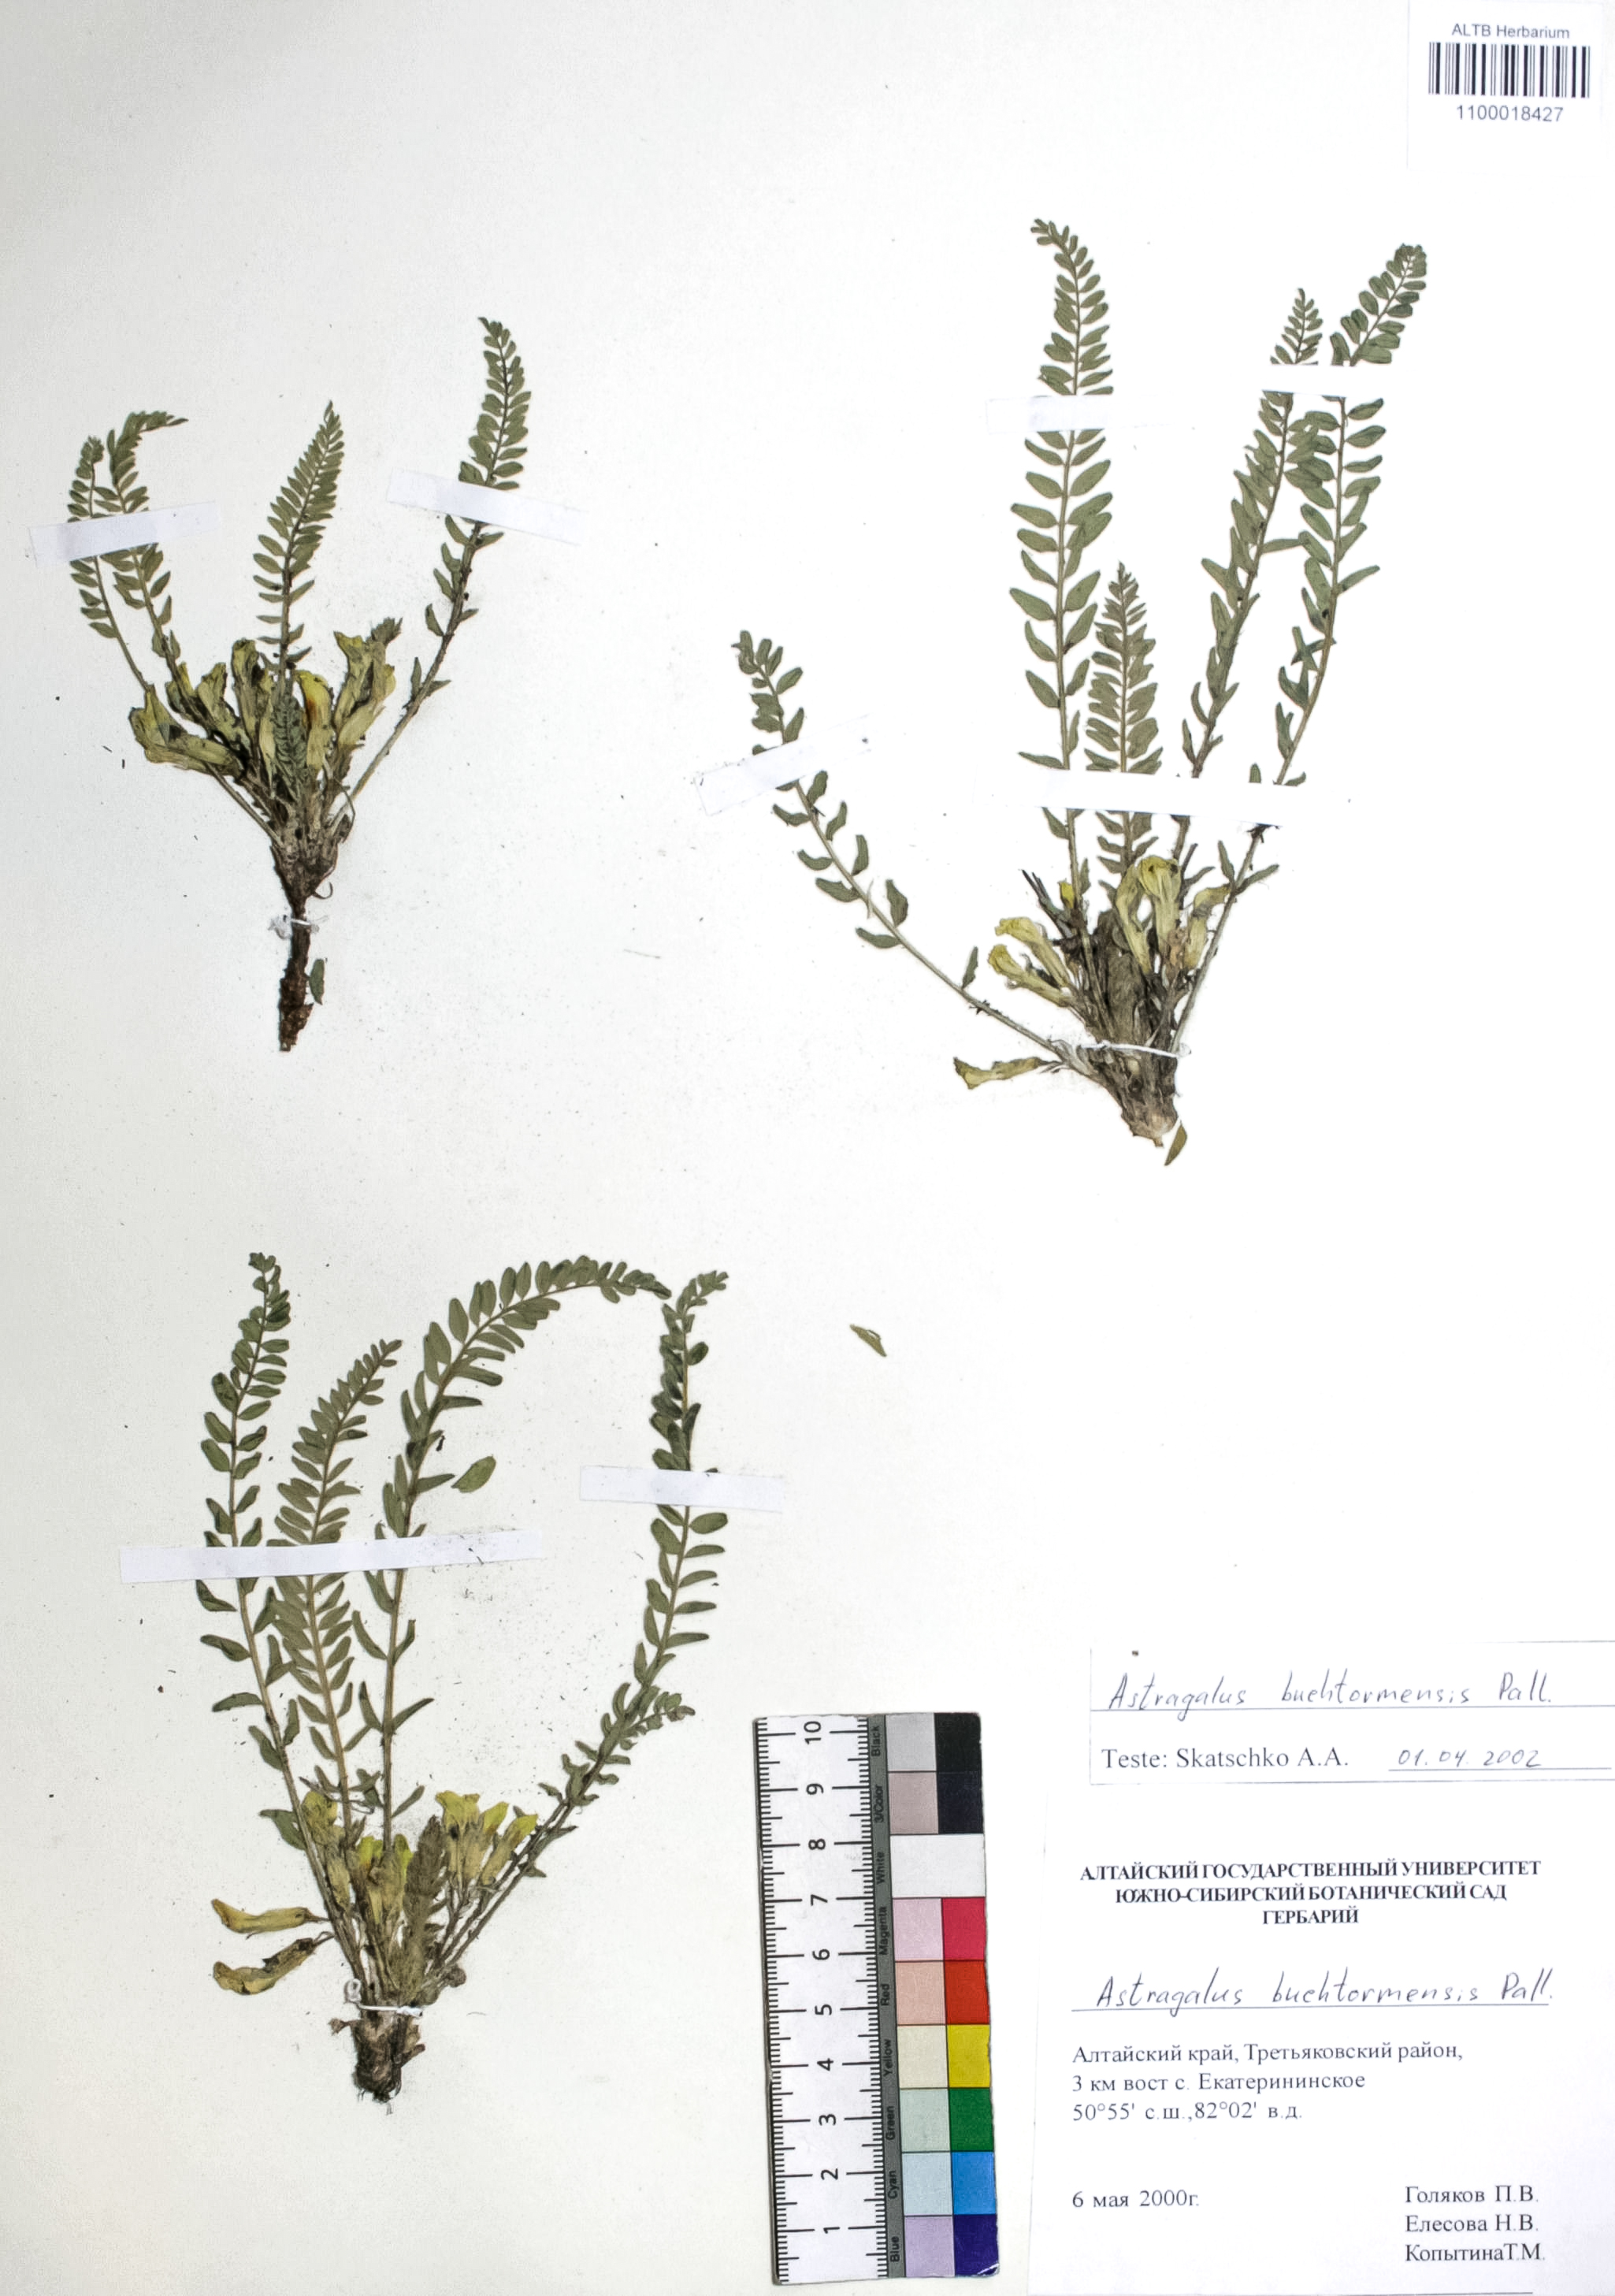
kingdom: Plantae
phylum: Tracheophyta
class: Magnoliopsida
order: Fabales
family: Fabaceae
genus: Astragalus
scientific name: Astragalus buchtormensis
